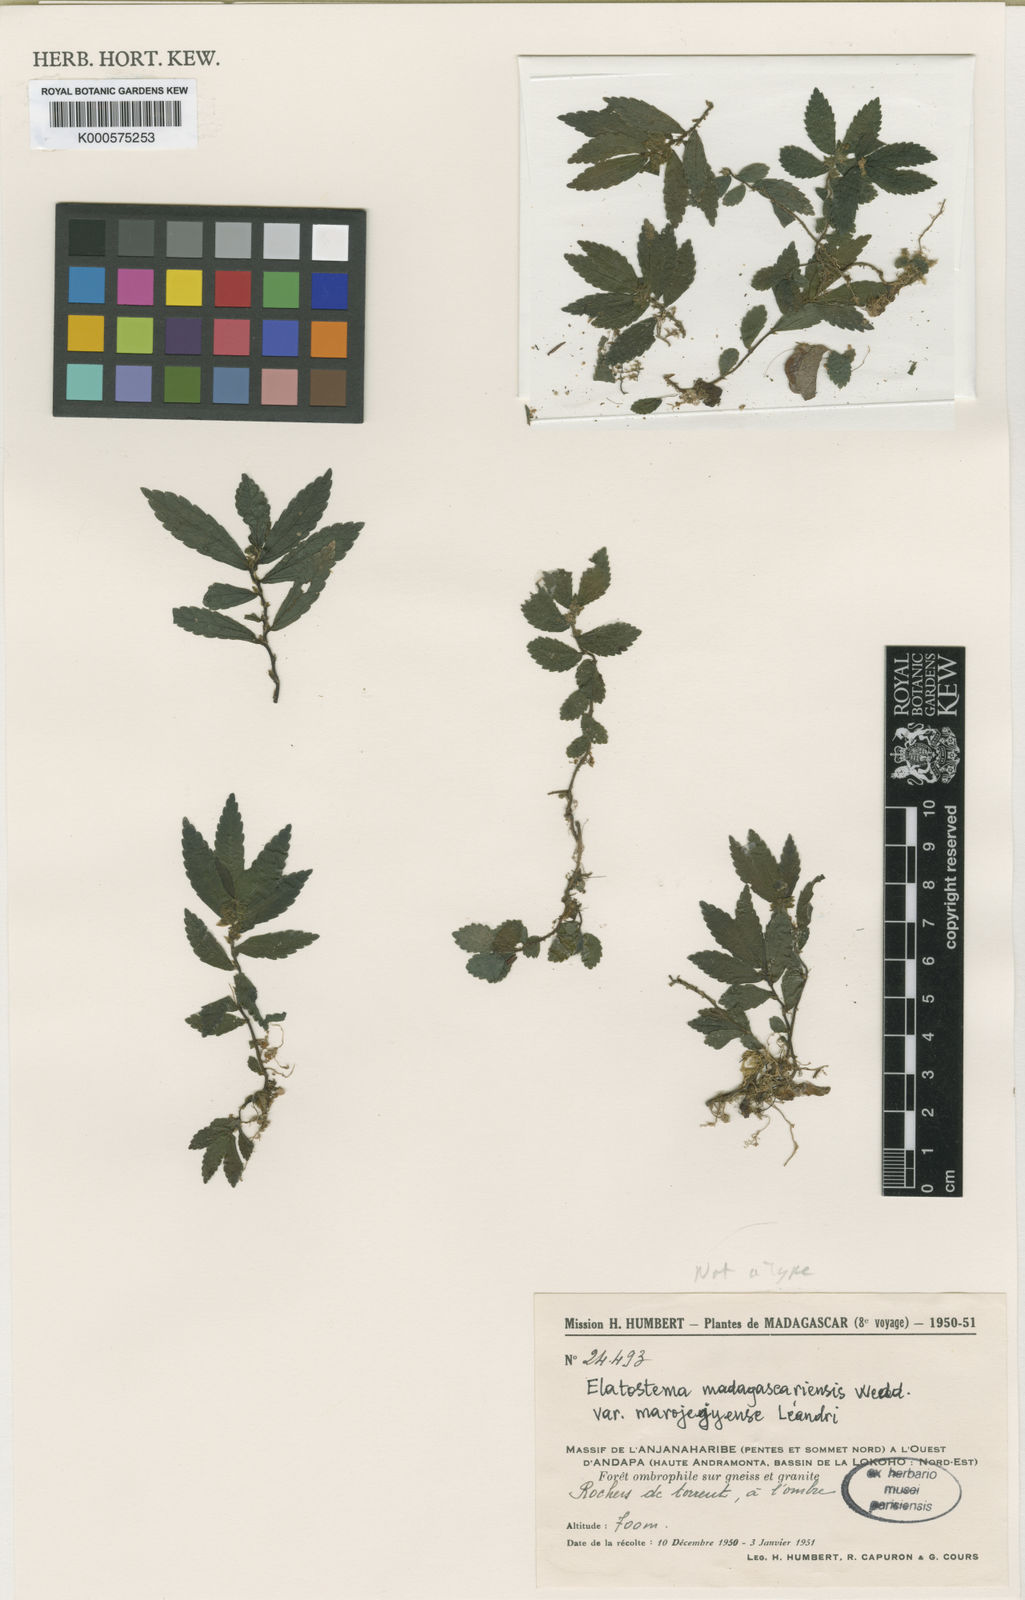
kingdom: Plantae
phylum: Tracheophyta
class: Magnoliopsida
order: Rosales
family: Urticaceae
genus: Elatostema
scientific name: Elatostema madagascariense
